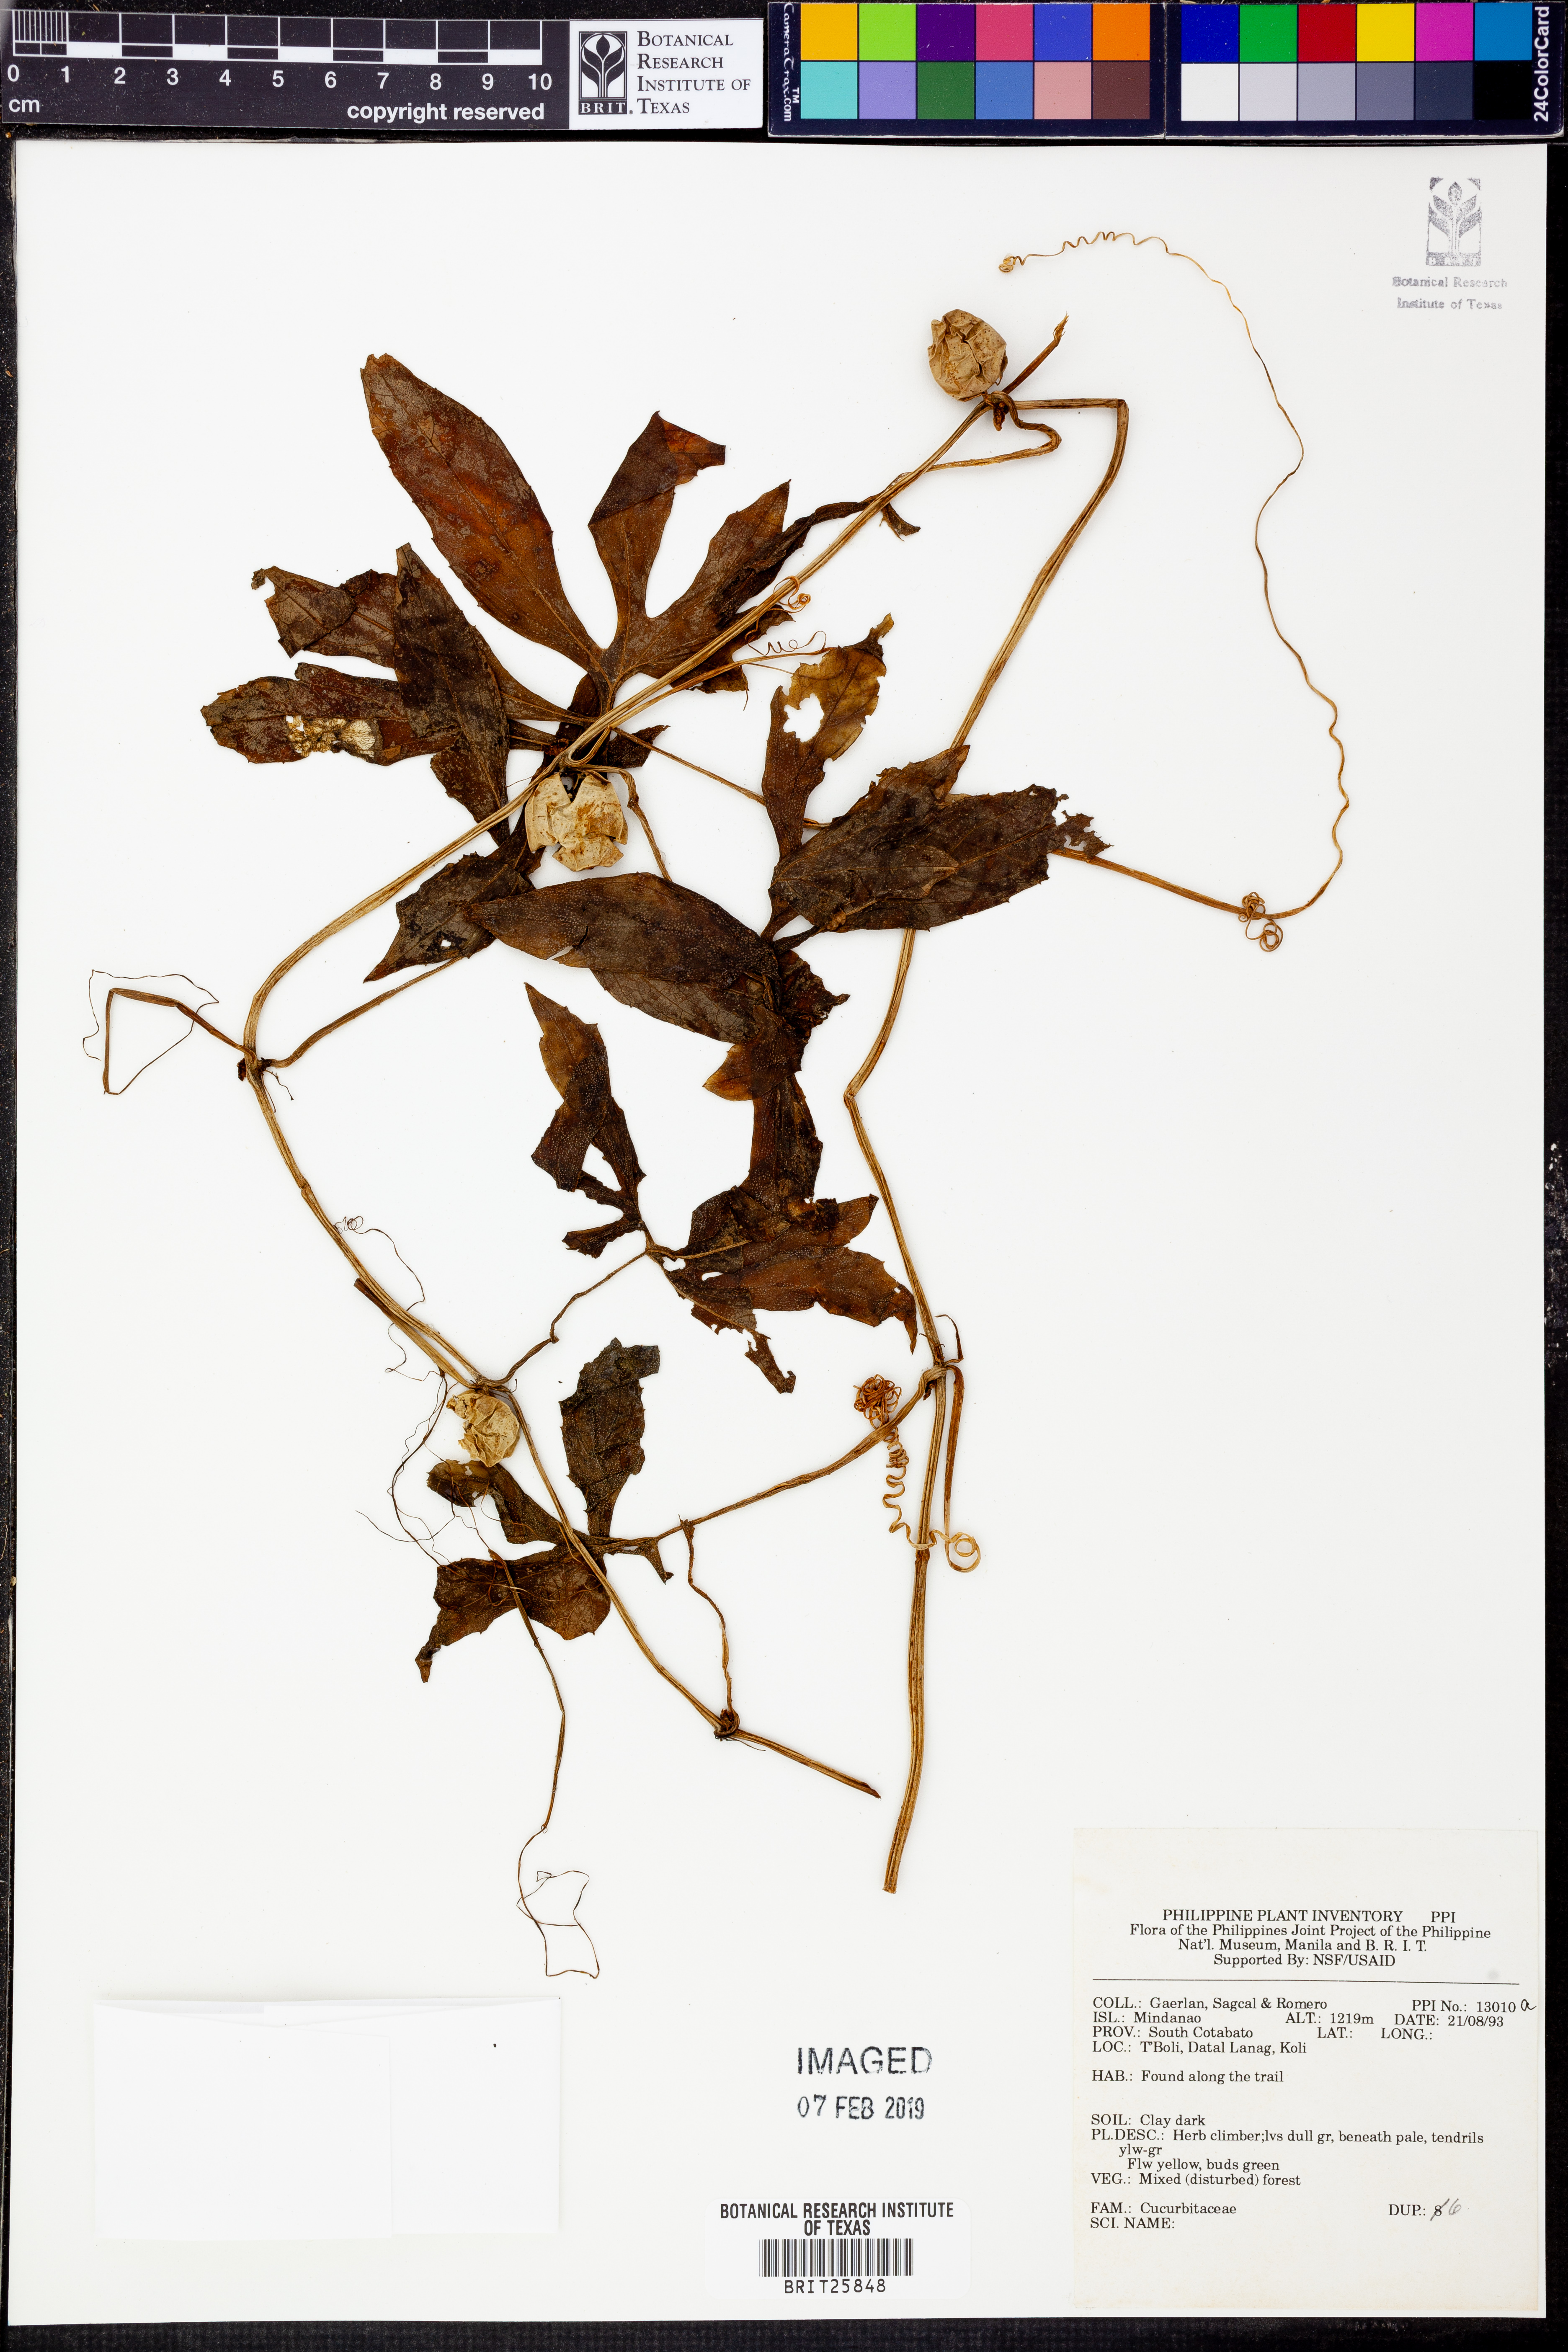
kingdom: Plantae
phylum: Tracheophyta
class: Magnoliopsida
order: Cucurbitales
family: Cucurbitaceae
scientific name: Cucurbitaceae
